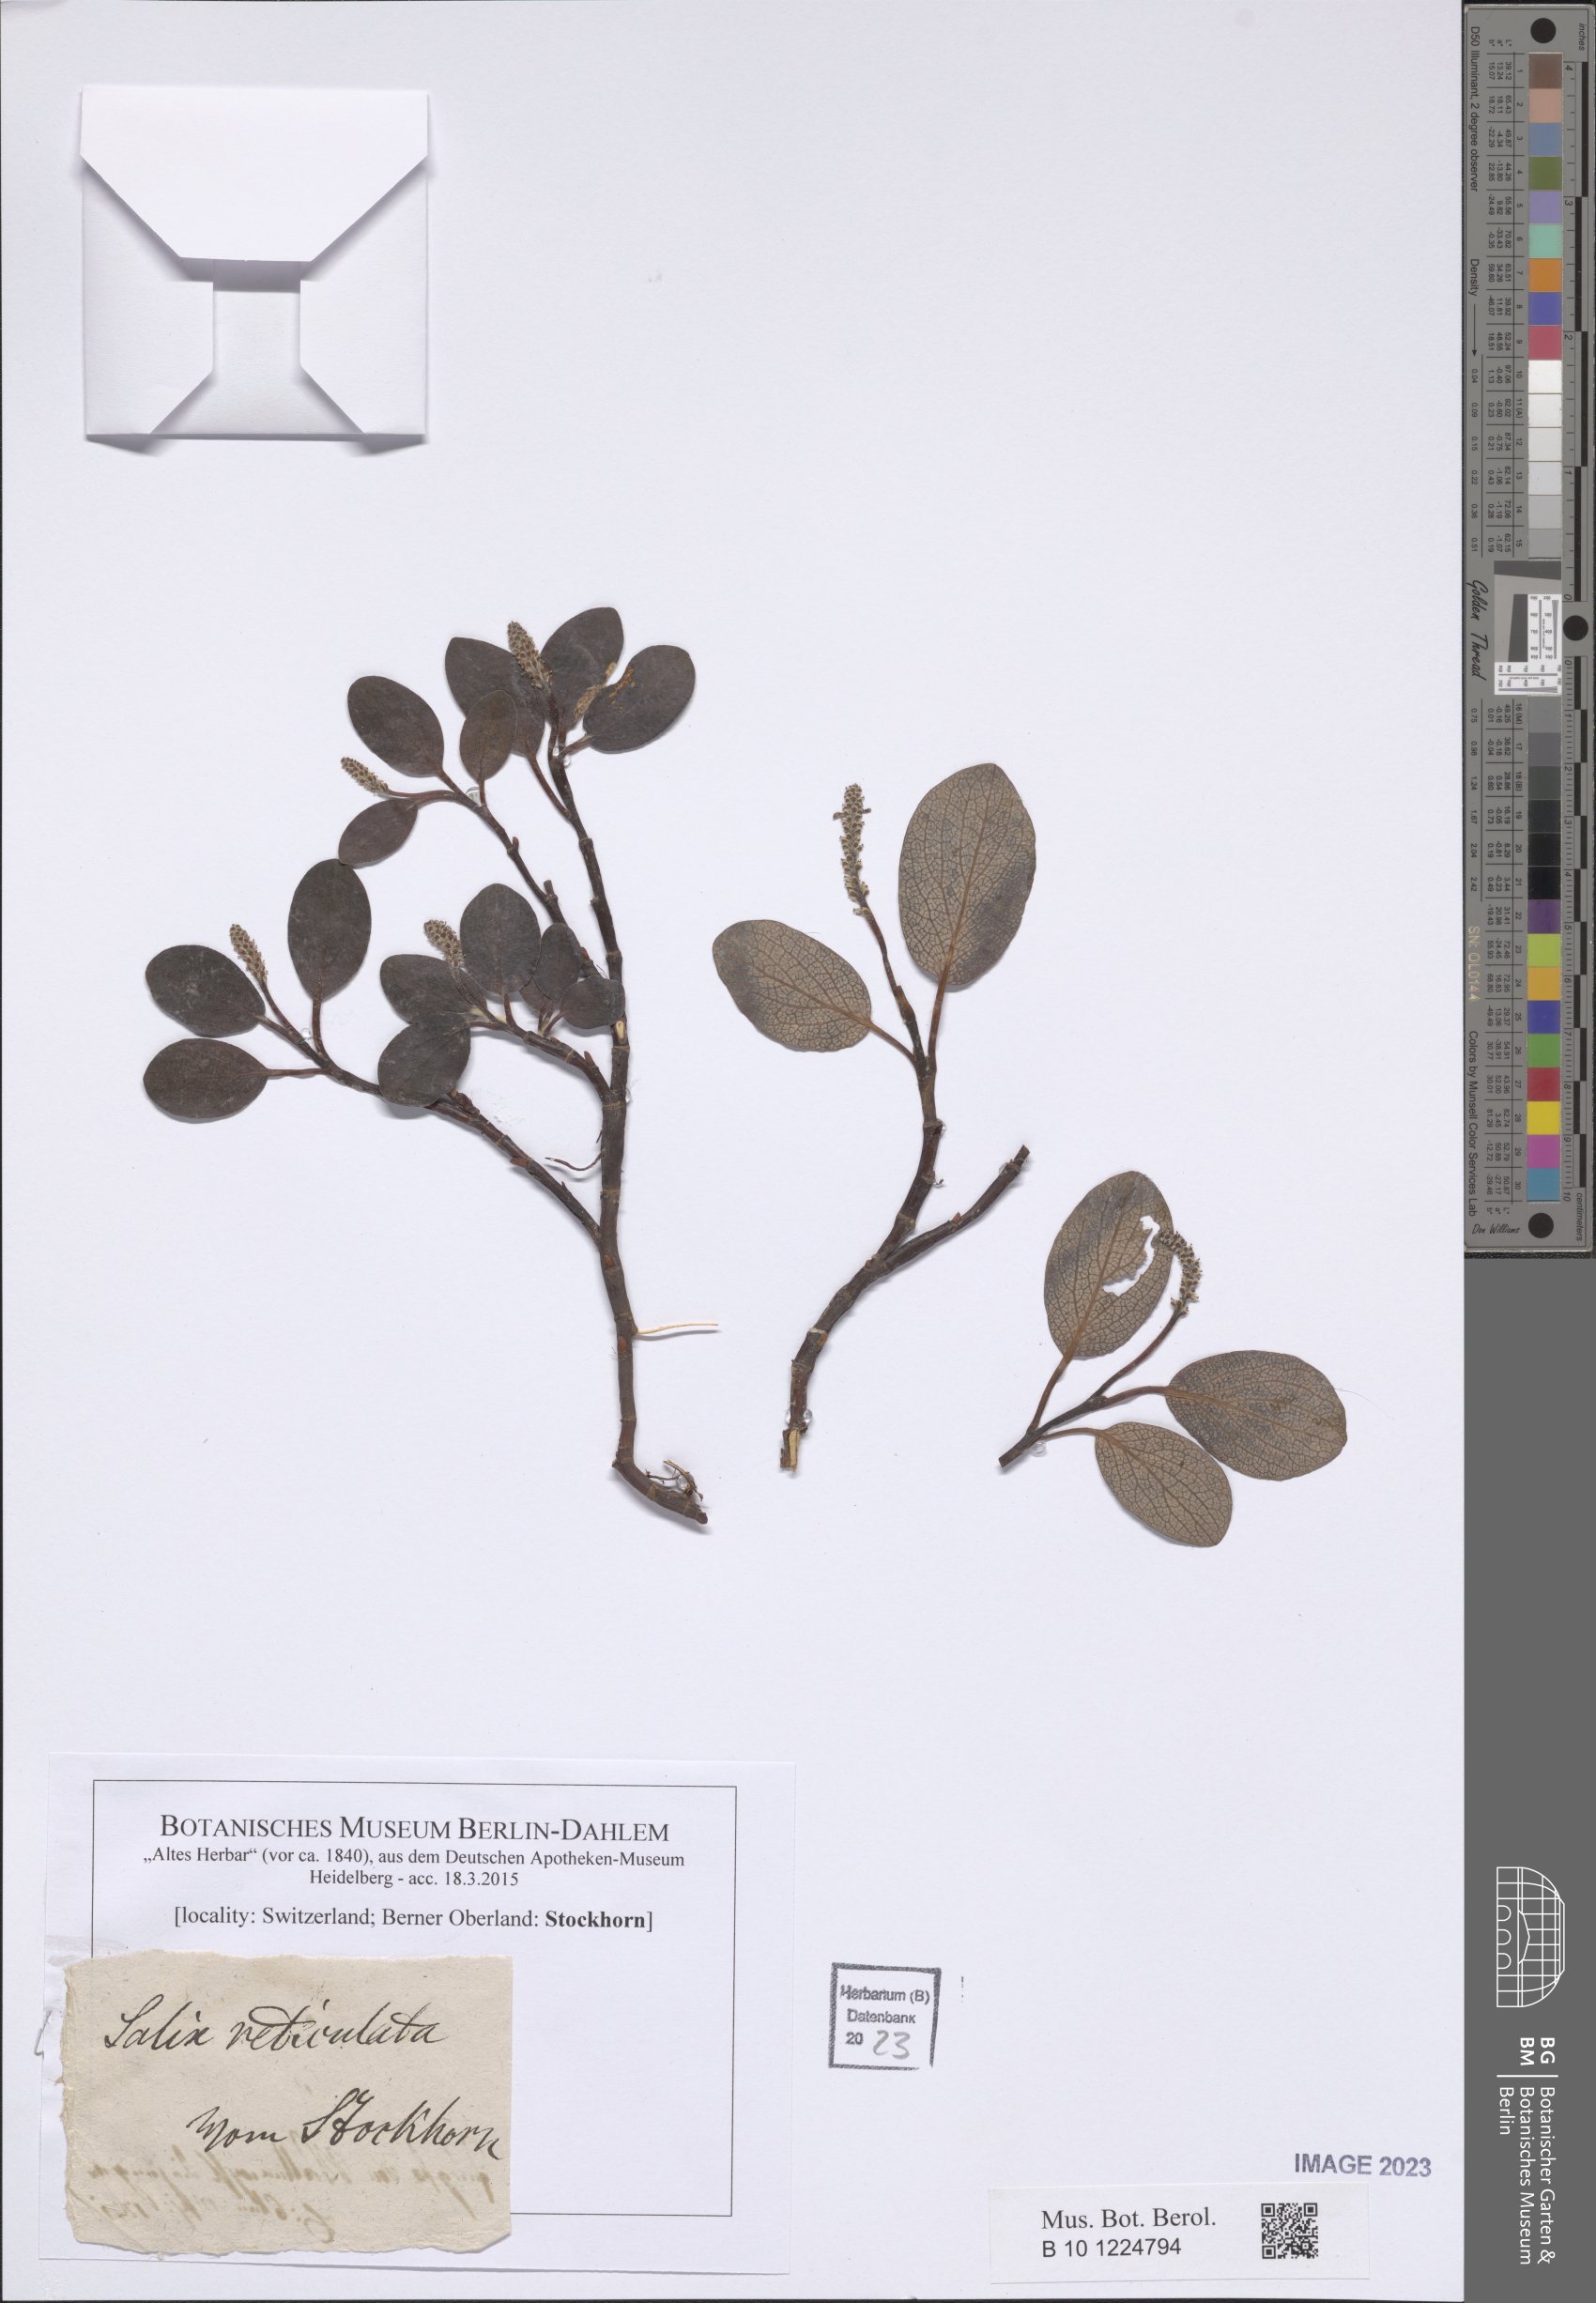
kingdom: Plantae
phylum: Tracheophyta
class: Magnoliopsida
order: Malpighiales
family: Salicaceae
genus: Salix
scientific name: Salix reticulata
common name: Net-leaved willow
